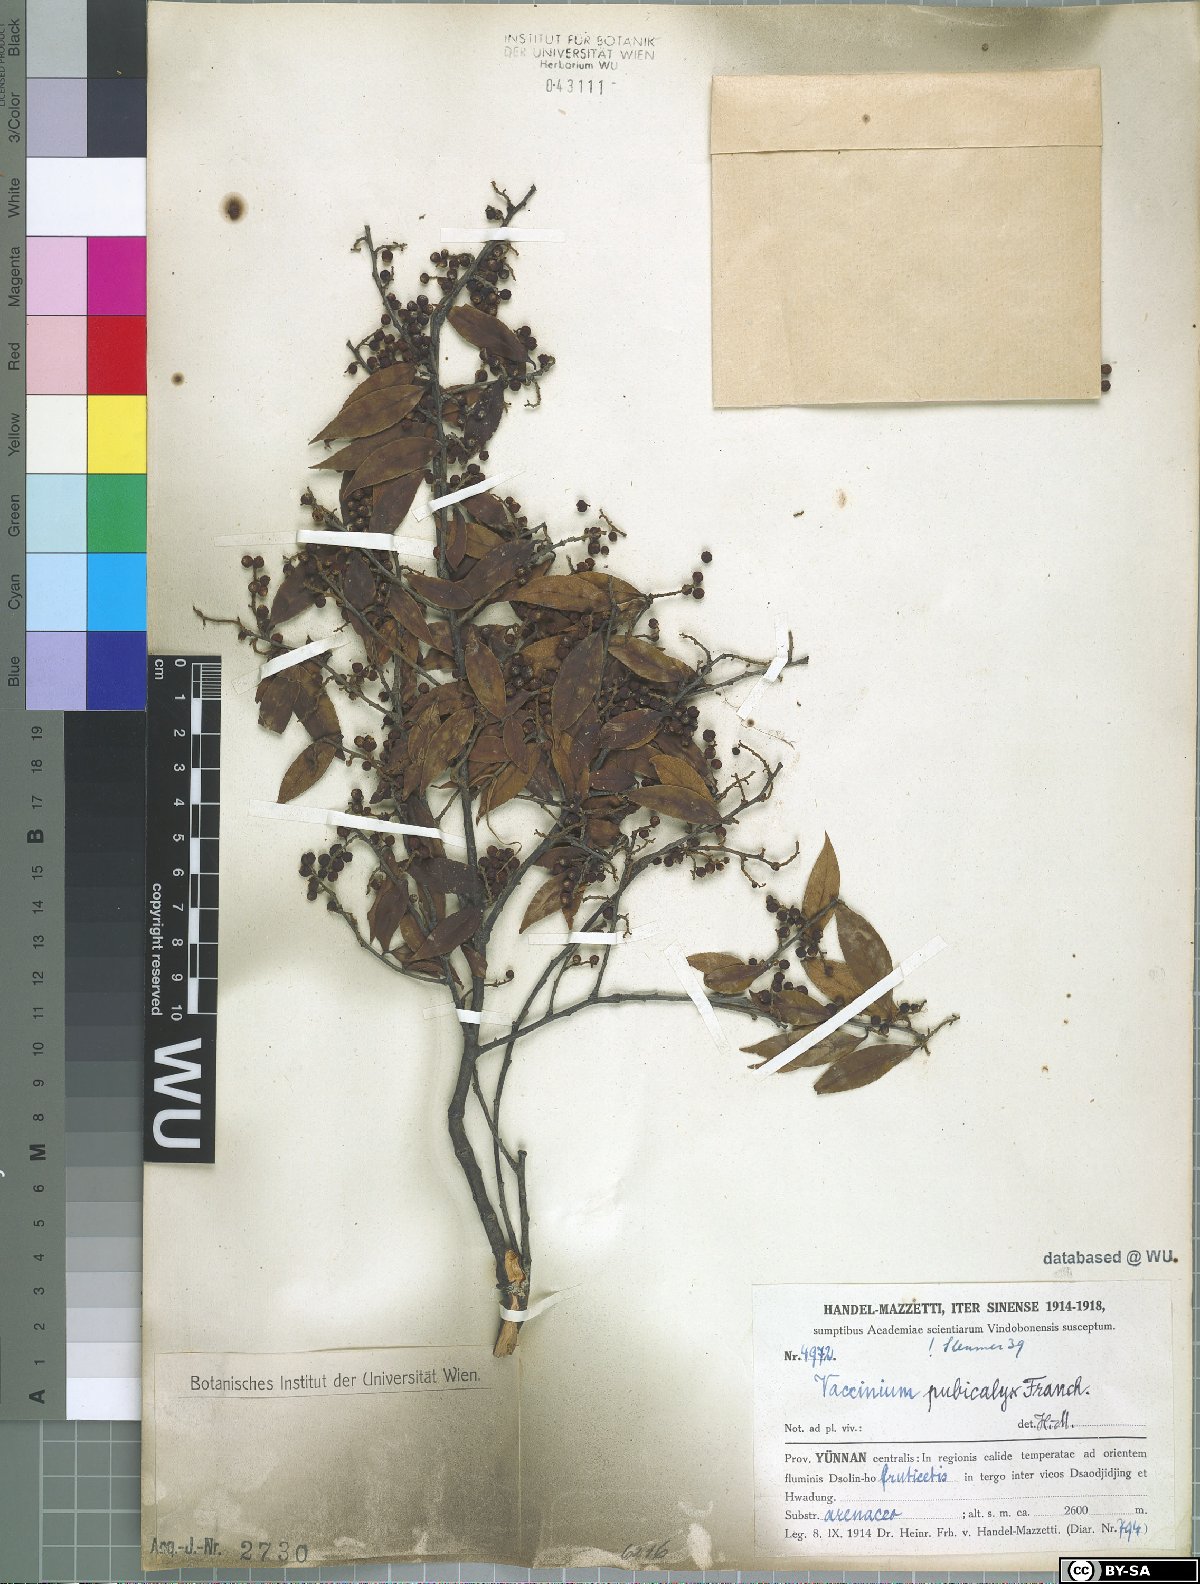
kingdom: Plantae
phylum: Tracheophyta
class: Magnoliopsida
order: Ericales
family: Ericaceae
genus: Vaccinium
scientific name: Vaccinium pubicalyx
